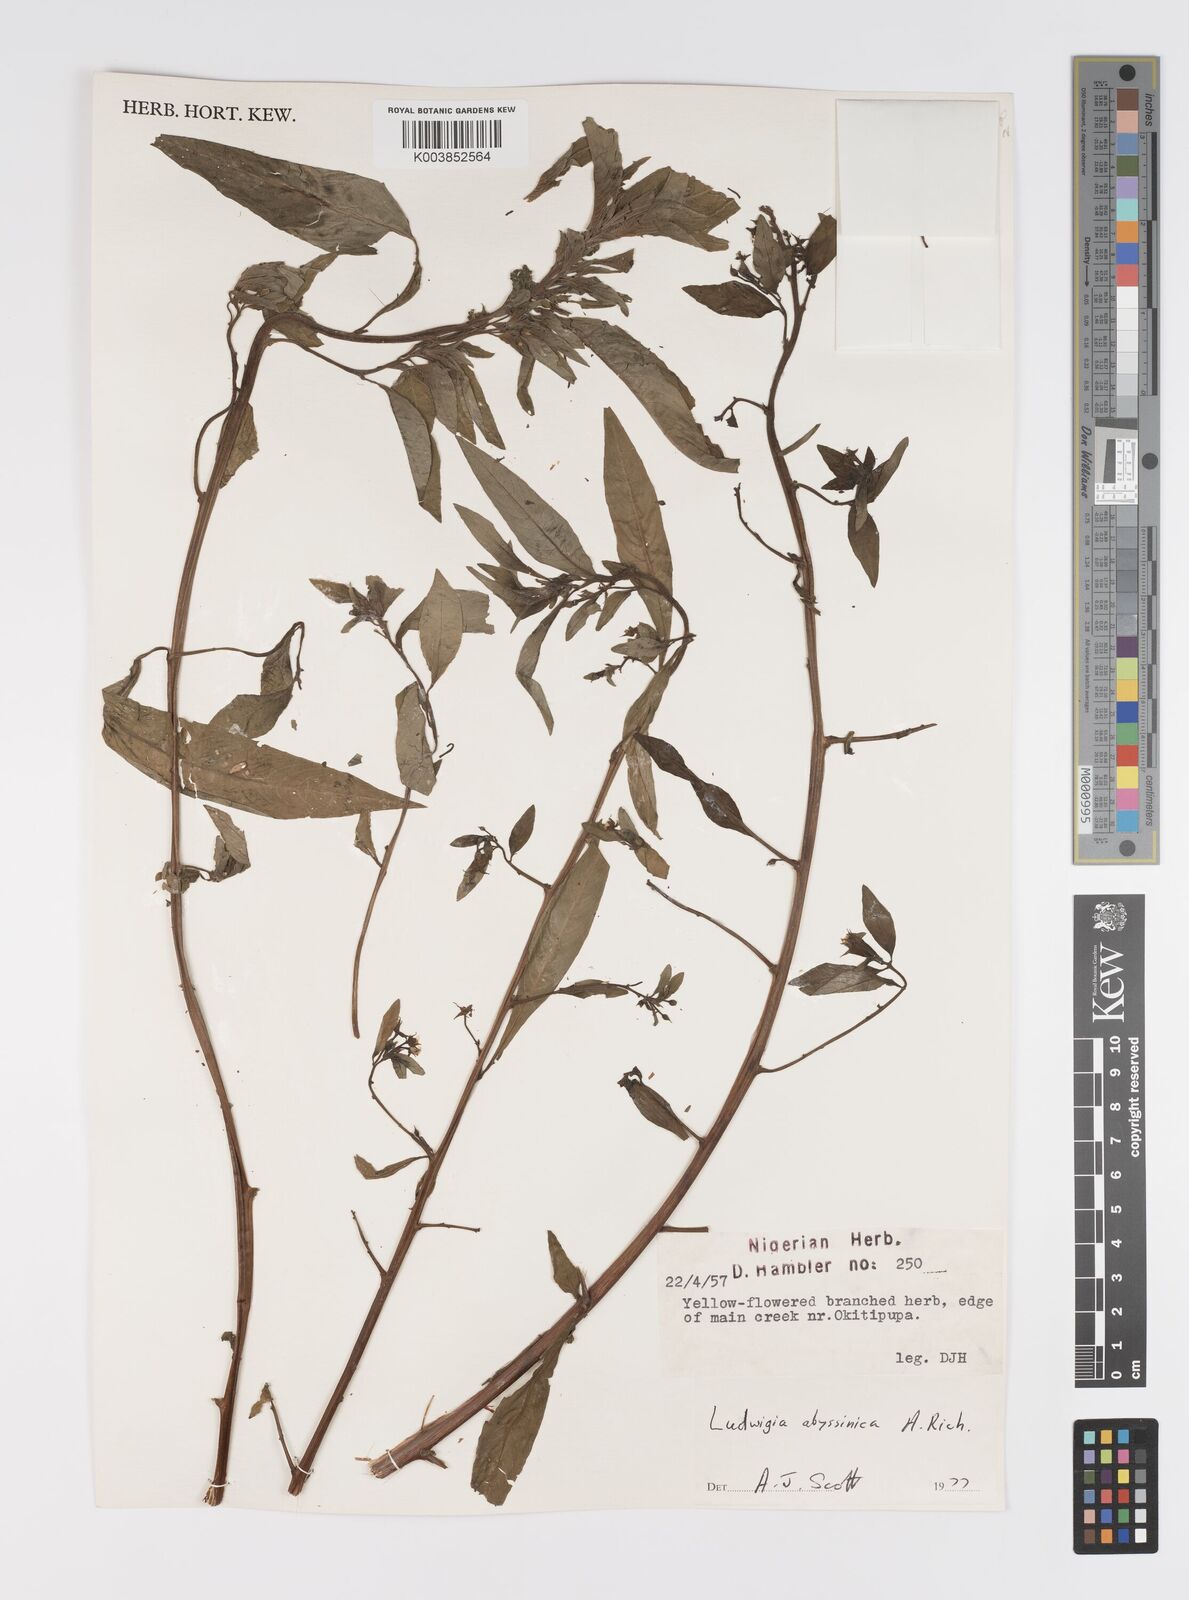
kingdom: Plantae
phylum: Tracheophyta
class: Magnoliopsida
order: Myrtales
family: Onagraceae
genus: Ludwigia
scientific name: Ludwigia abyssinica
